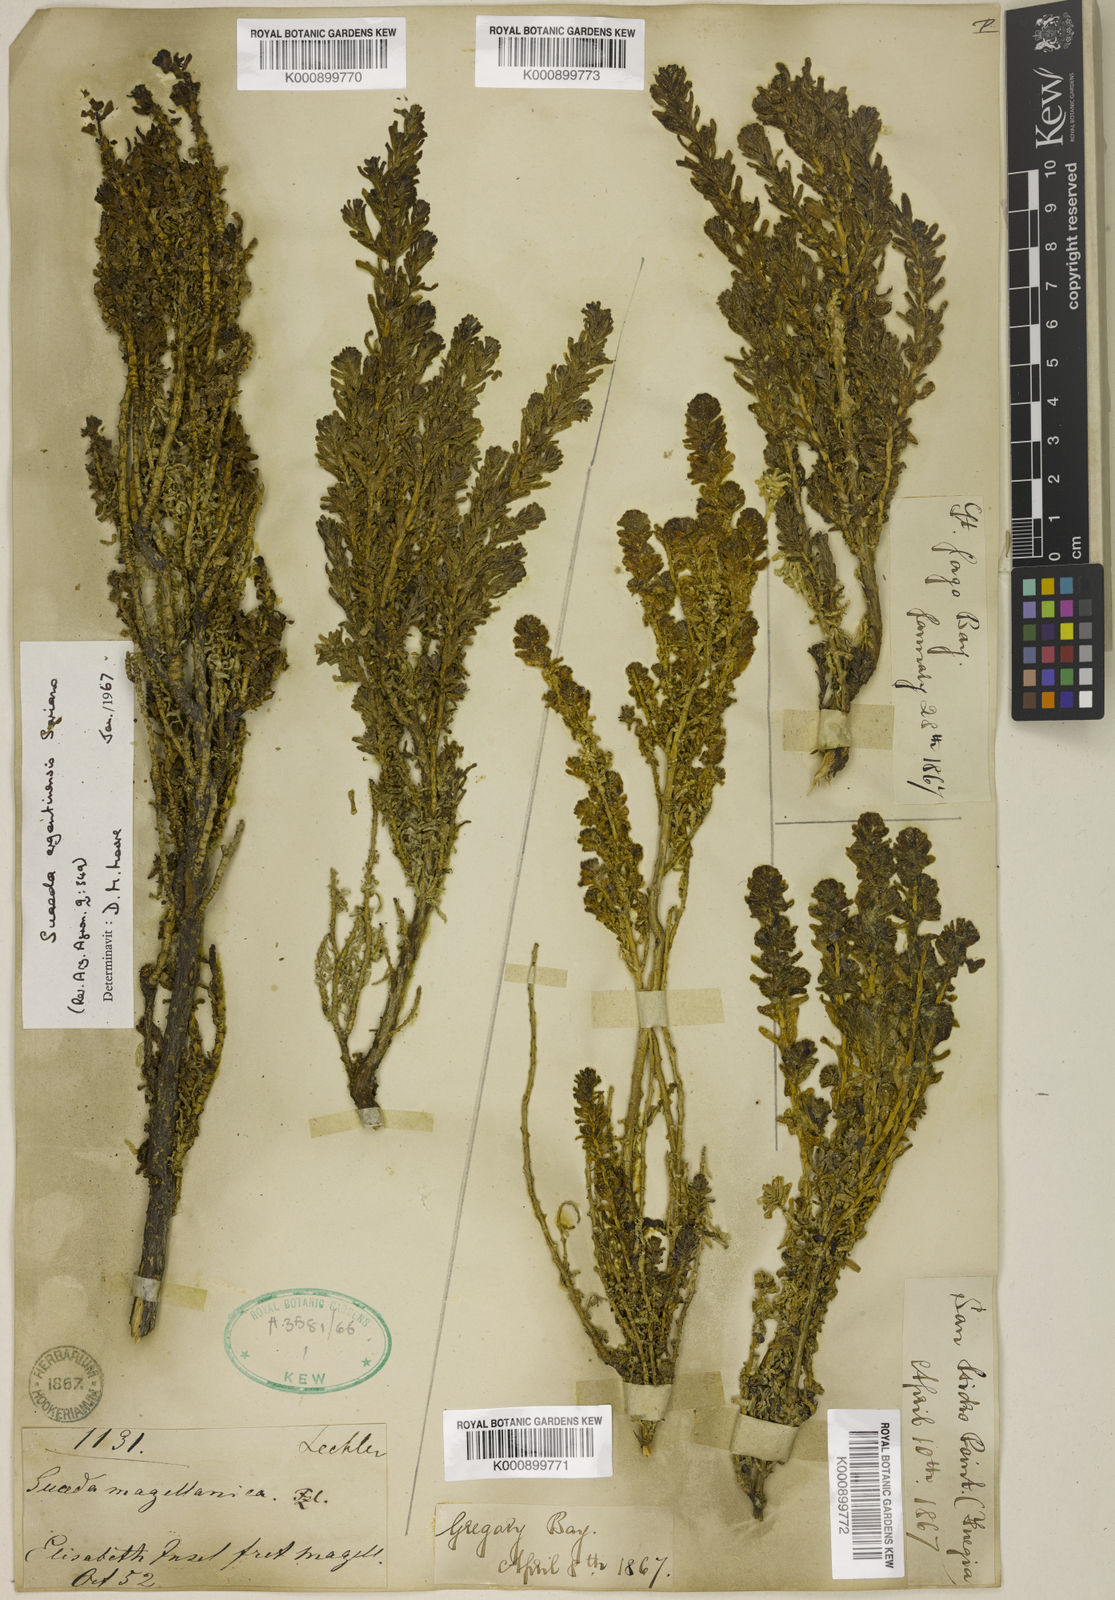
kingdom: Plantae
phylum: Tracheophyta
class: Magnoliopsida
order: Caryophyllales
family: Amaranthaceae
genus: Suaeda
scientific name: Suaeda
